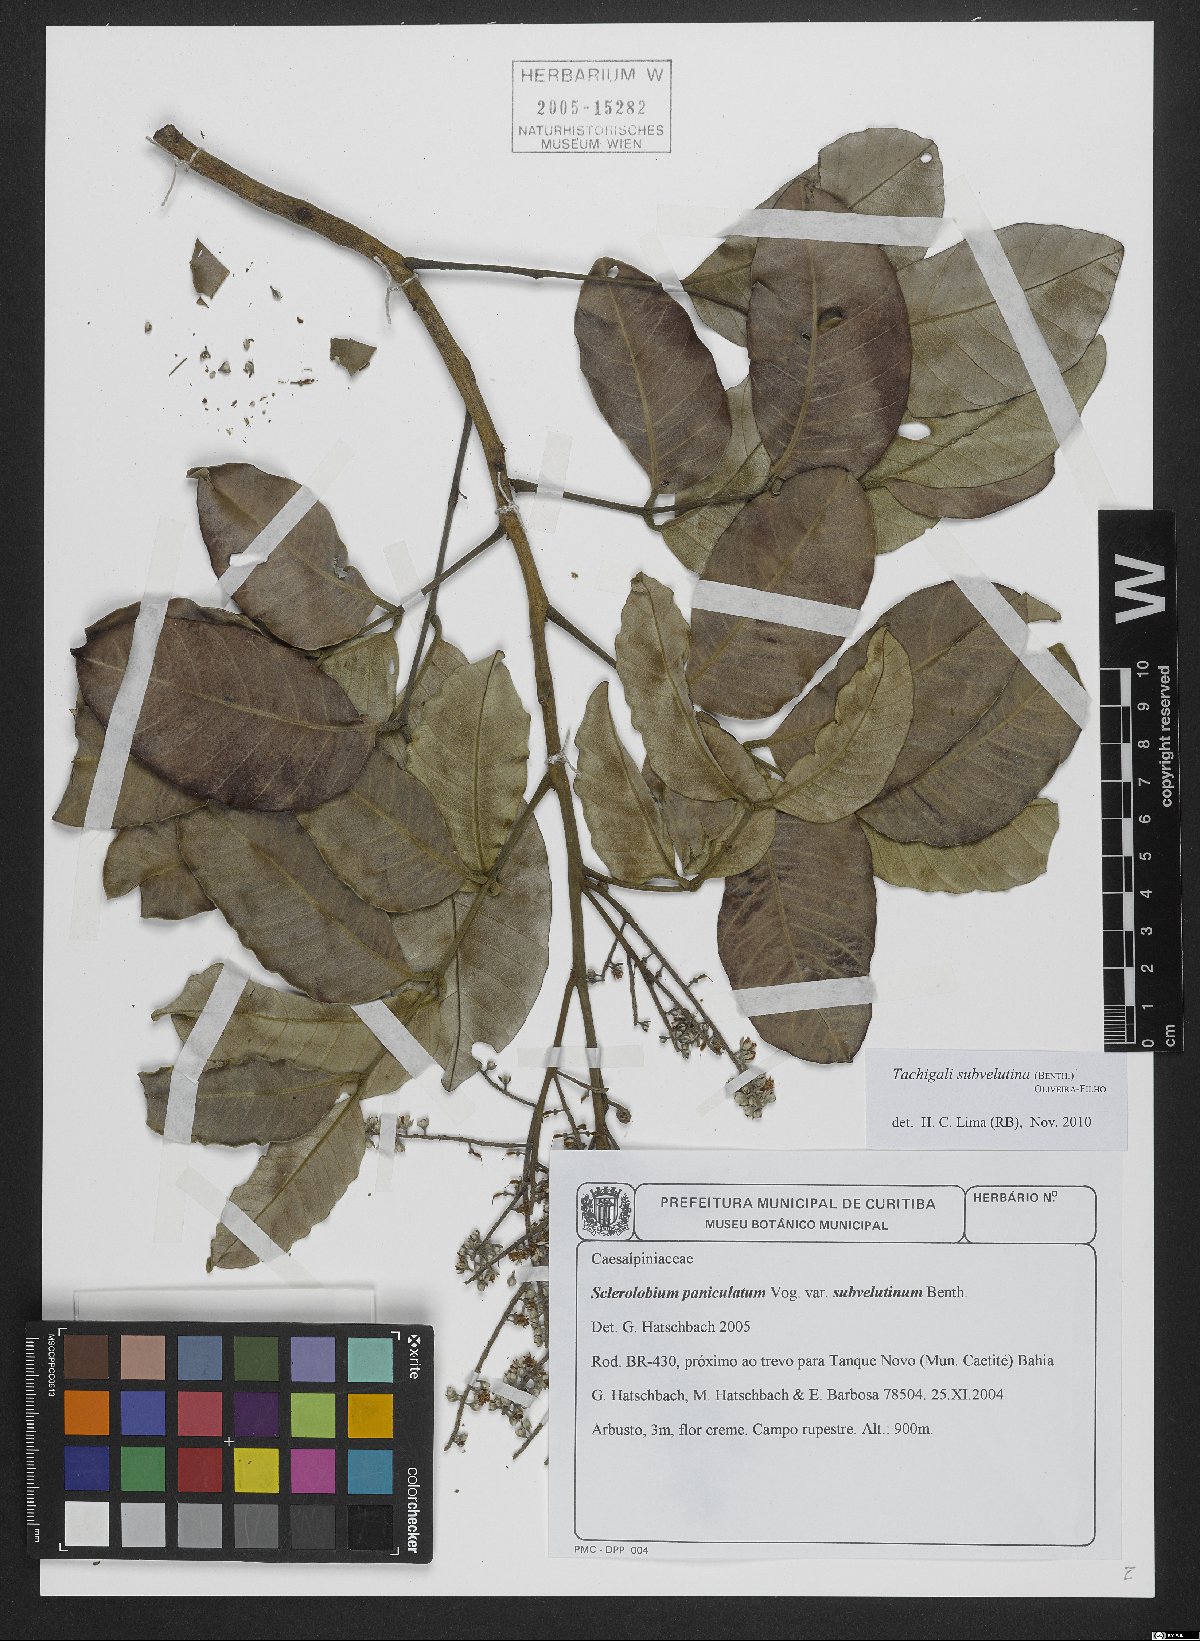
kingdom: Plantae
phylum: Tracheophyta
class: Magnoliopsida
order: Fabales
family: Fabaceae
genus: Tachigali
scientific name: Tachigali subvelutina
